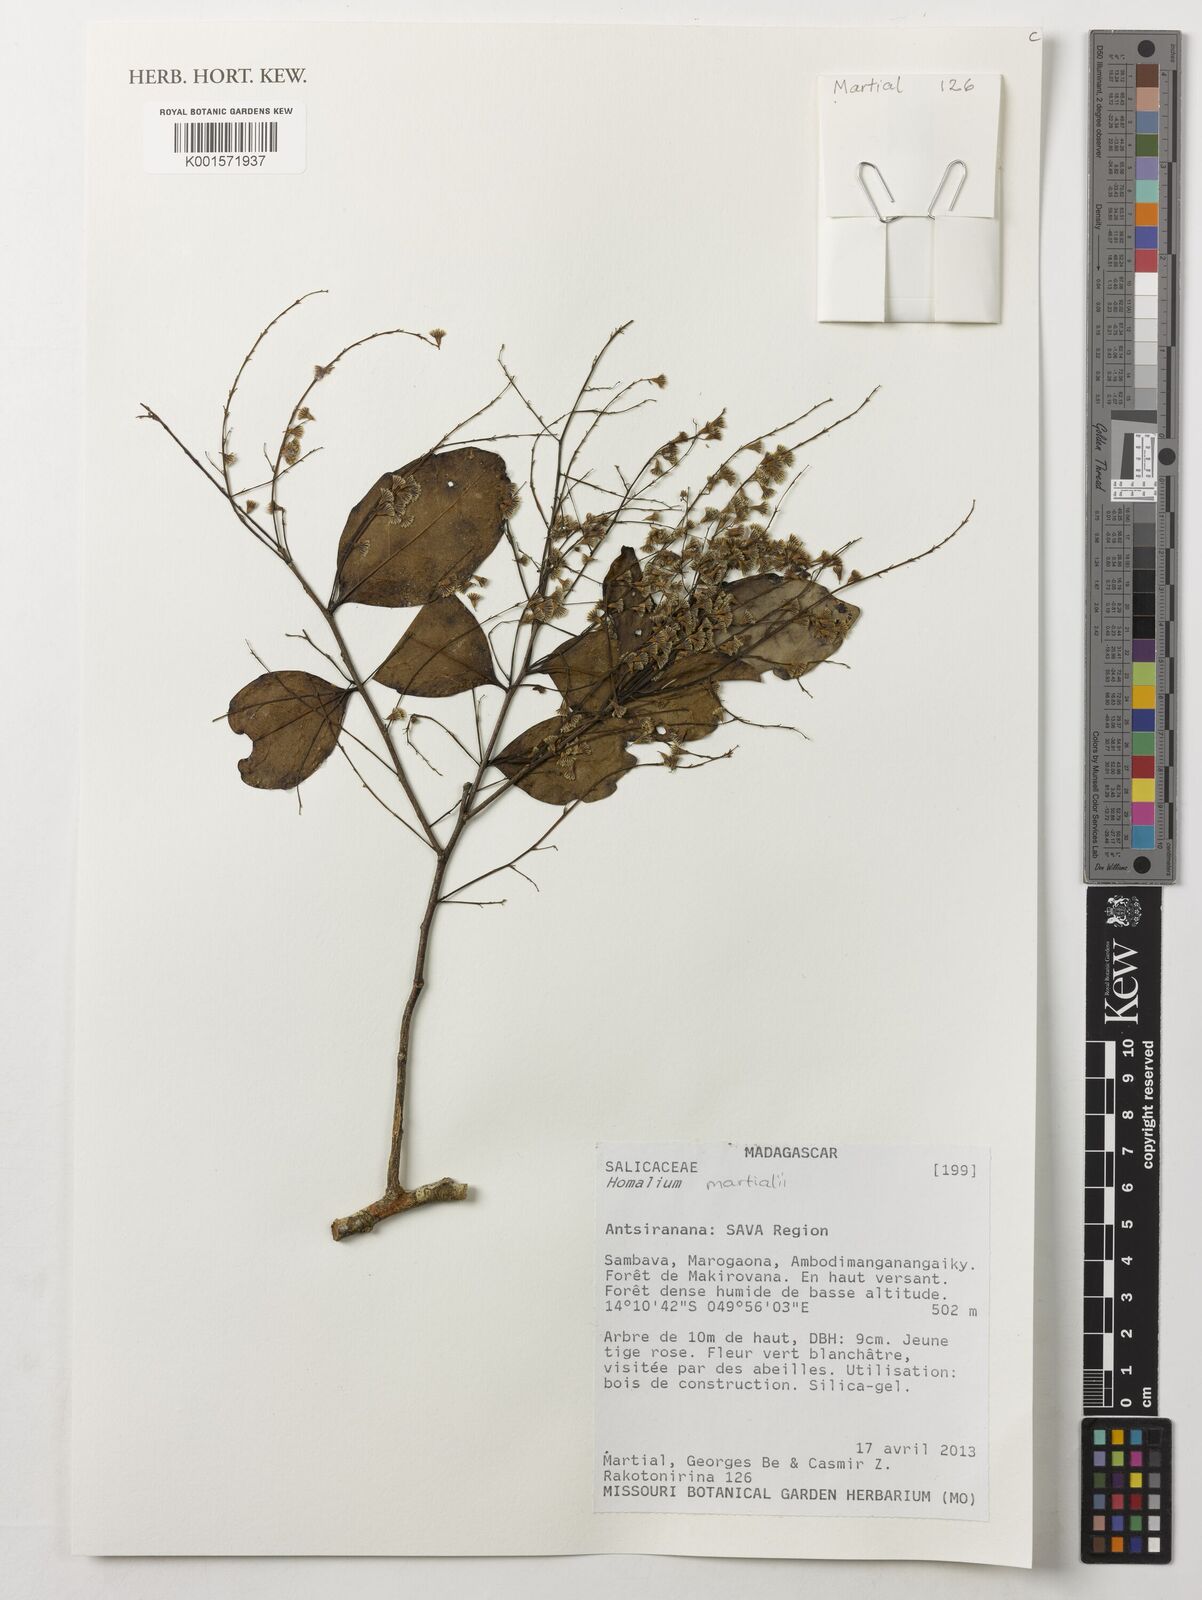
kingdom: Plantae
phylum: Tracheophyta
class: Magnoliopsida
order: Malpighiales
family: Salicaceae
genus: Homalium
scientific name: Homalium martialii
